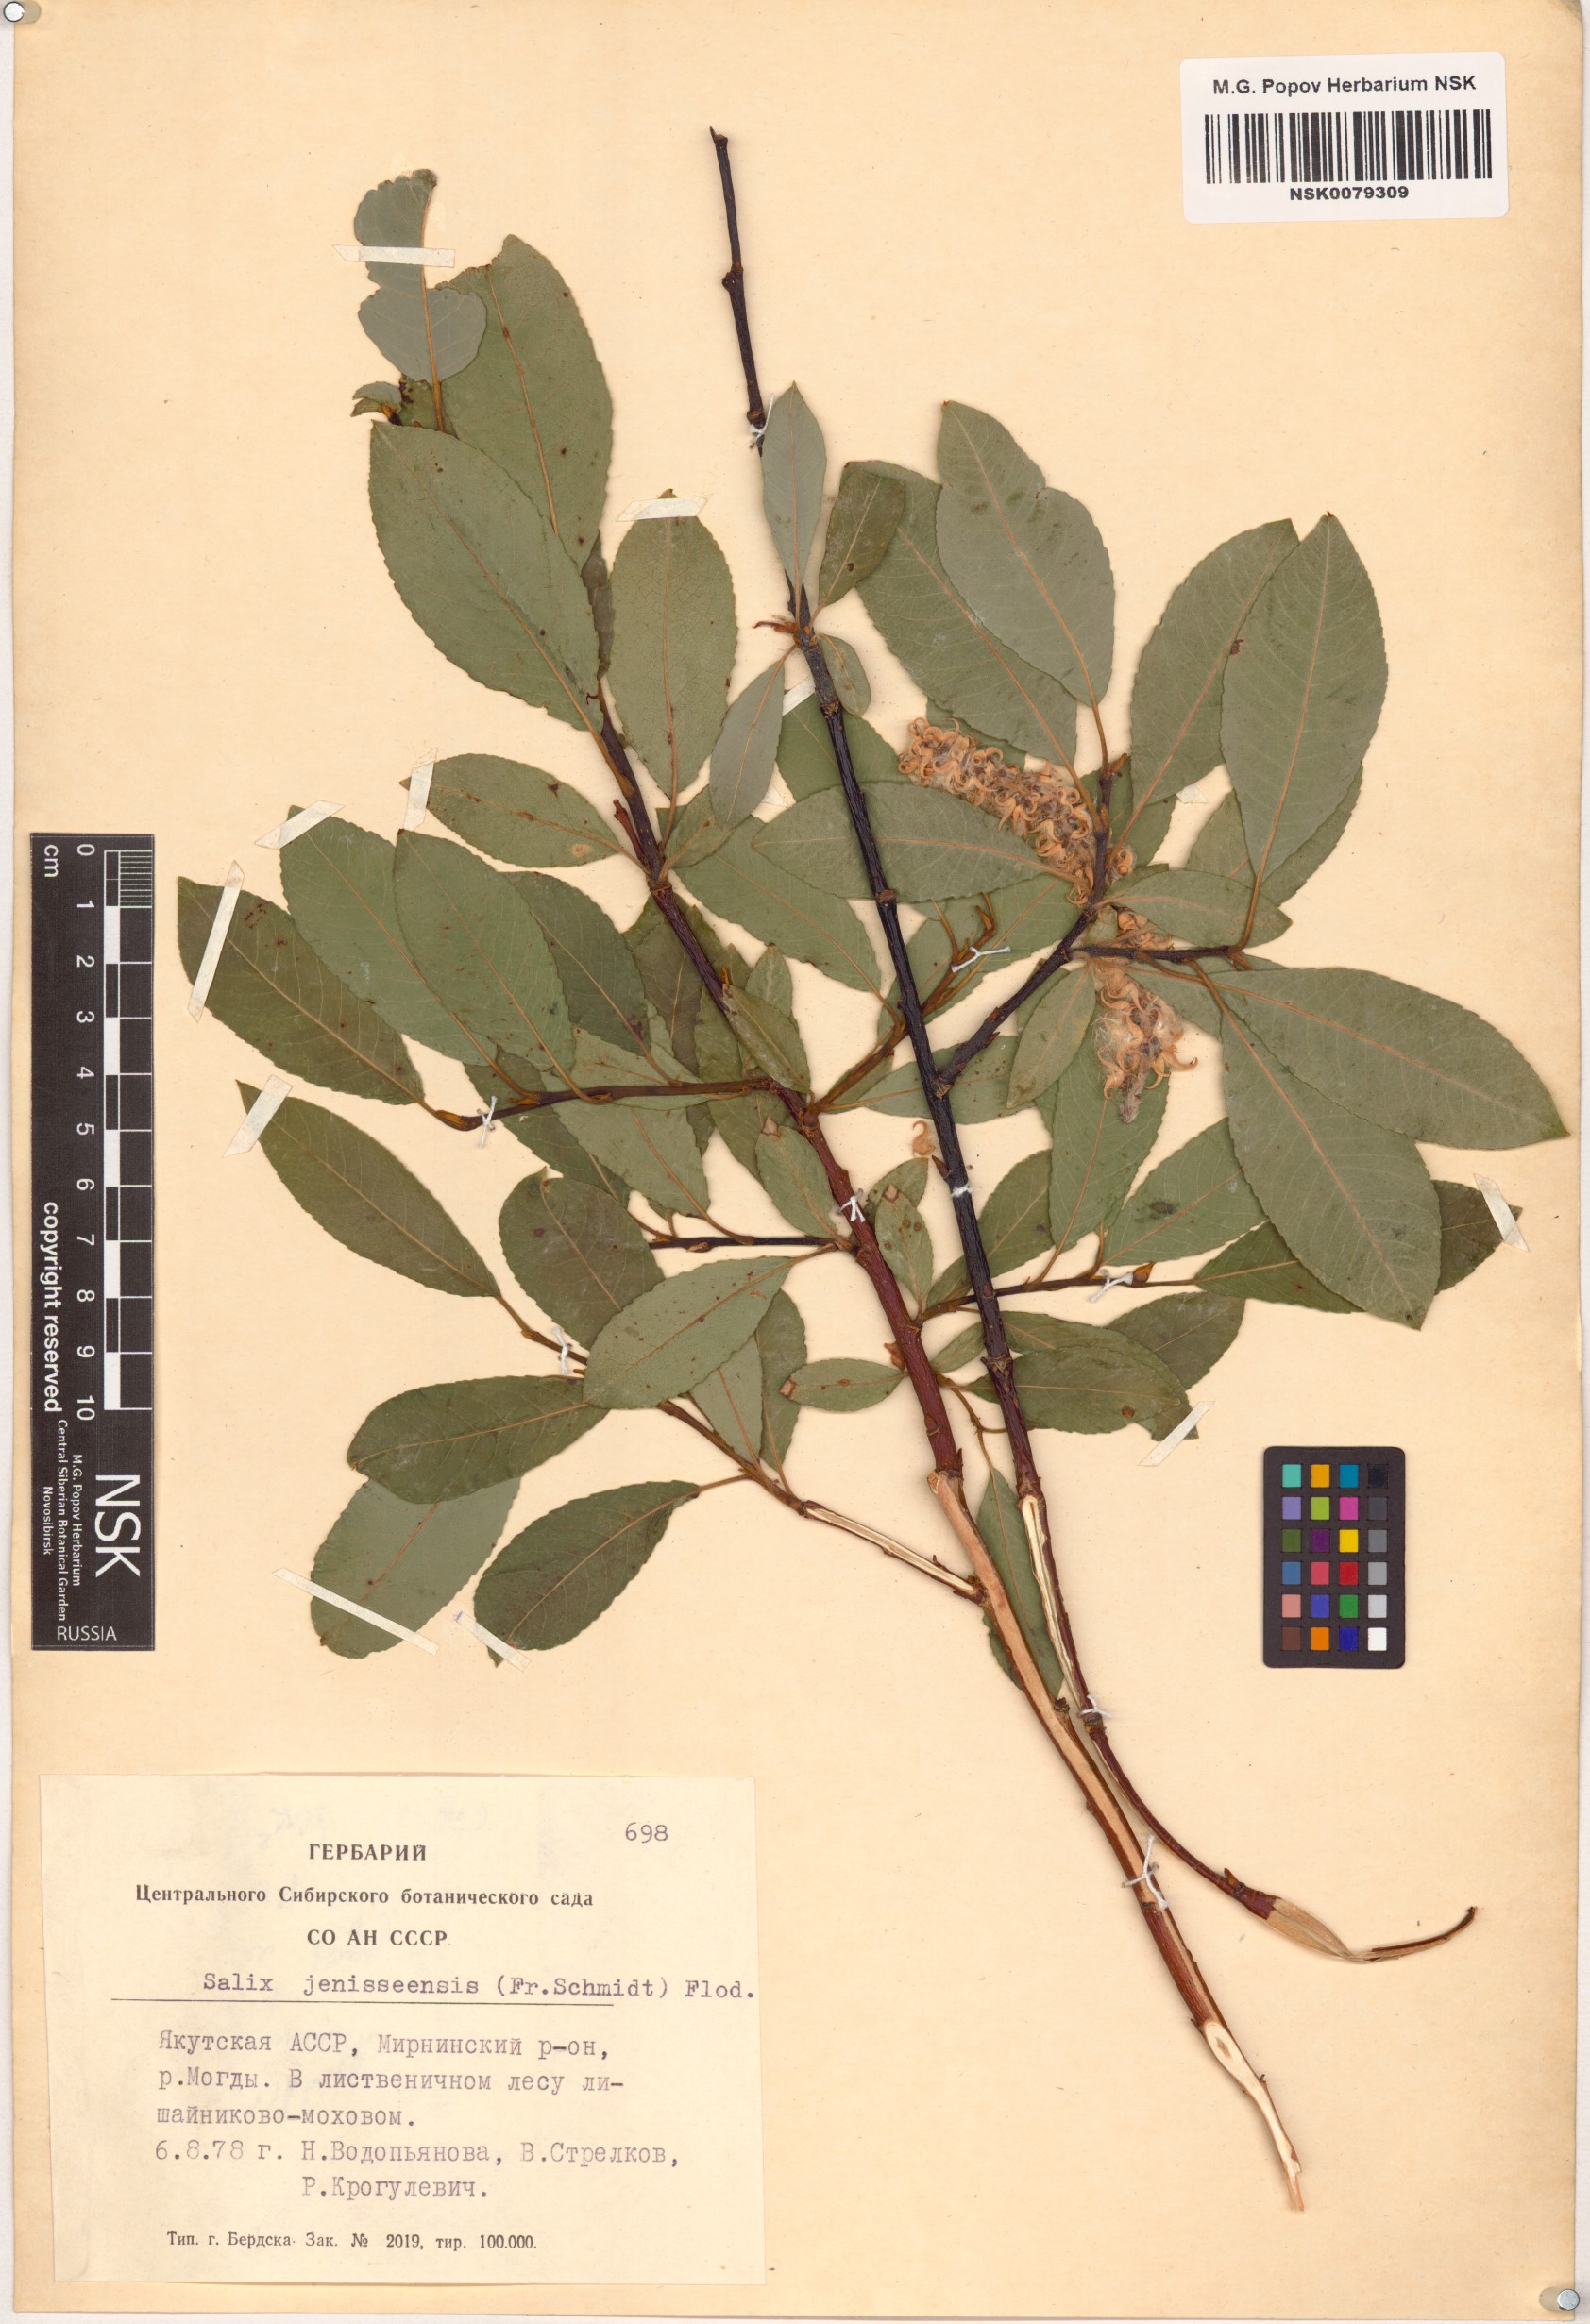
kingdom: Plantae
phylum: Tracheophyta
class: Magnoliopsida
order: Malpighiales
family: Salicaceae
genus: Salix
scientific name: Salix jenisseensis
